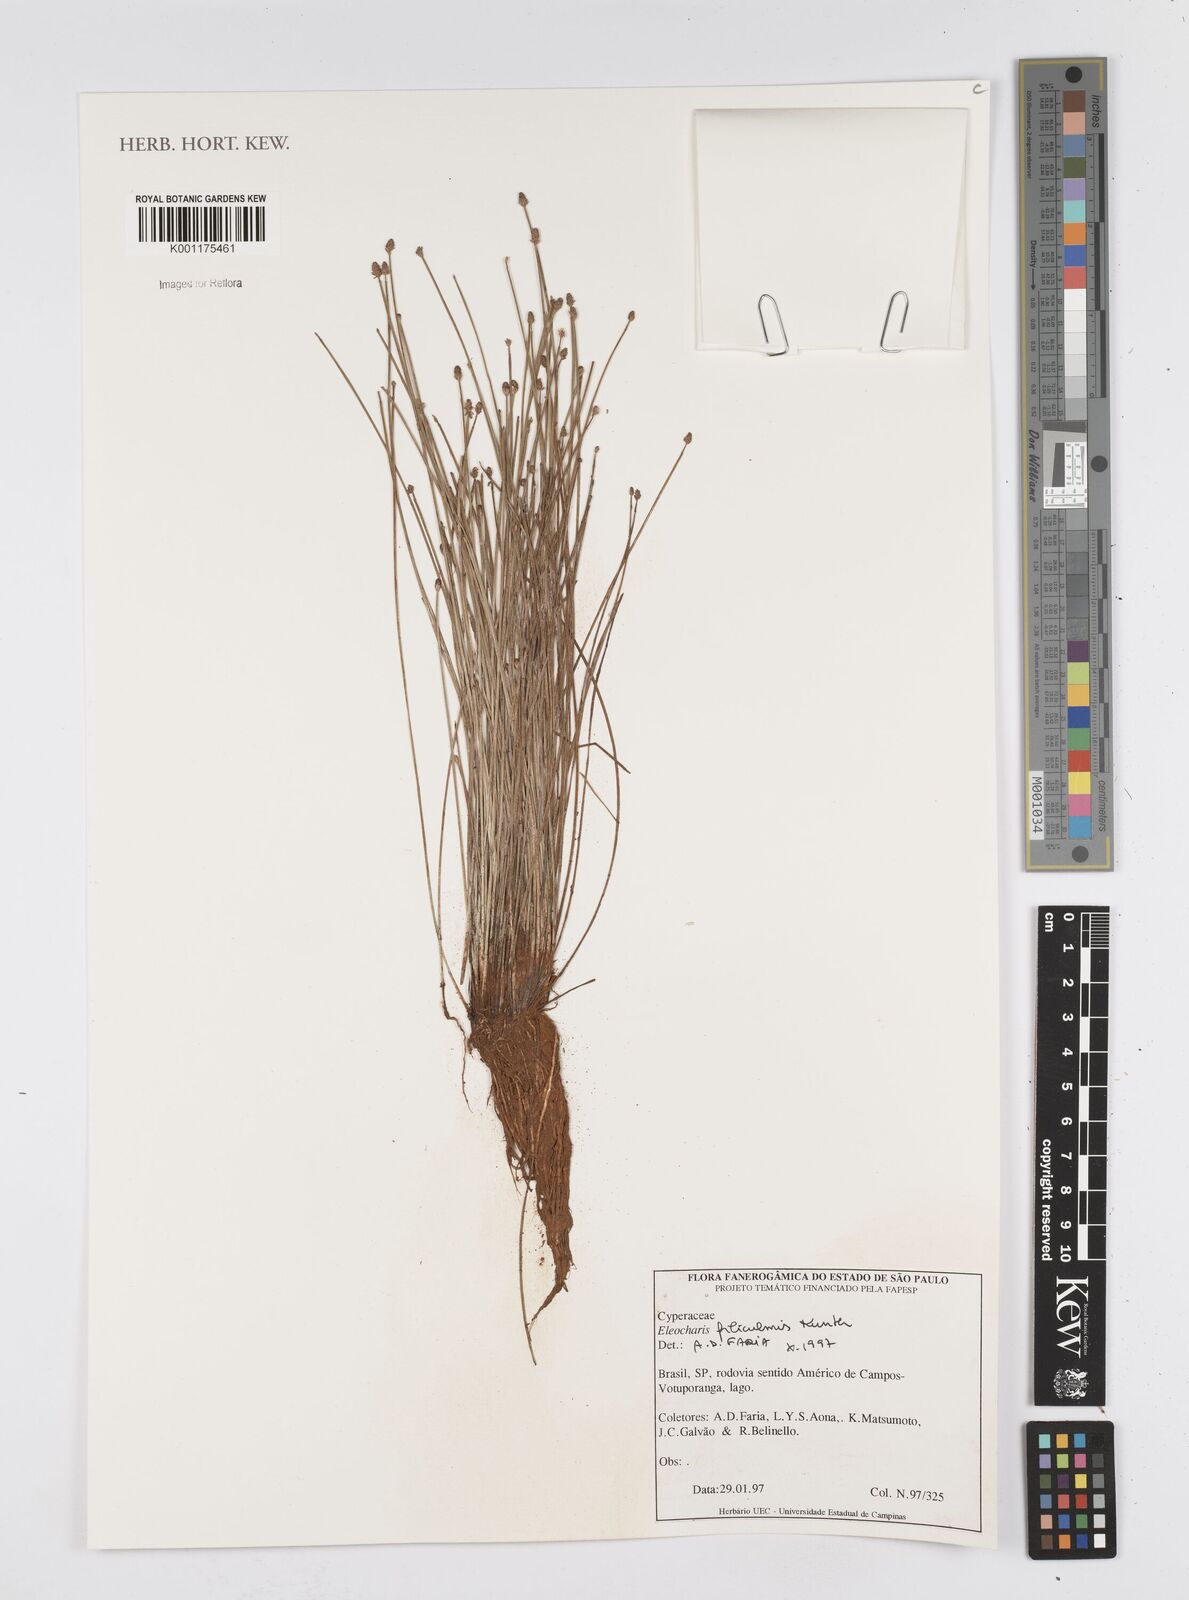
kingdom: Plantae
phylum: Tracheophyta
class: Liliopsida
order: Poales
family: Cyperaceae
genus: Eleocharis
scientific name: Eleocharis filiculmis
